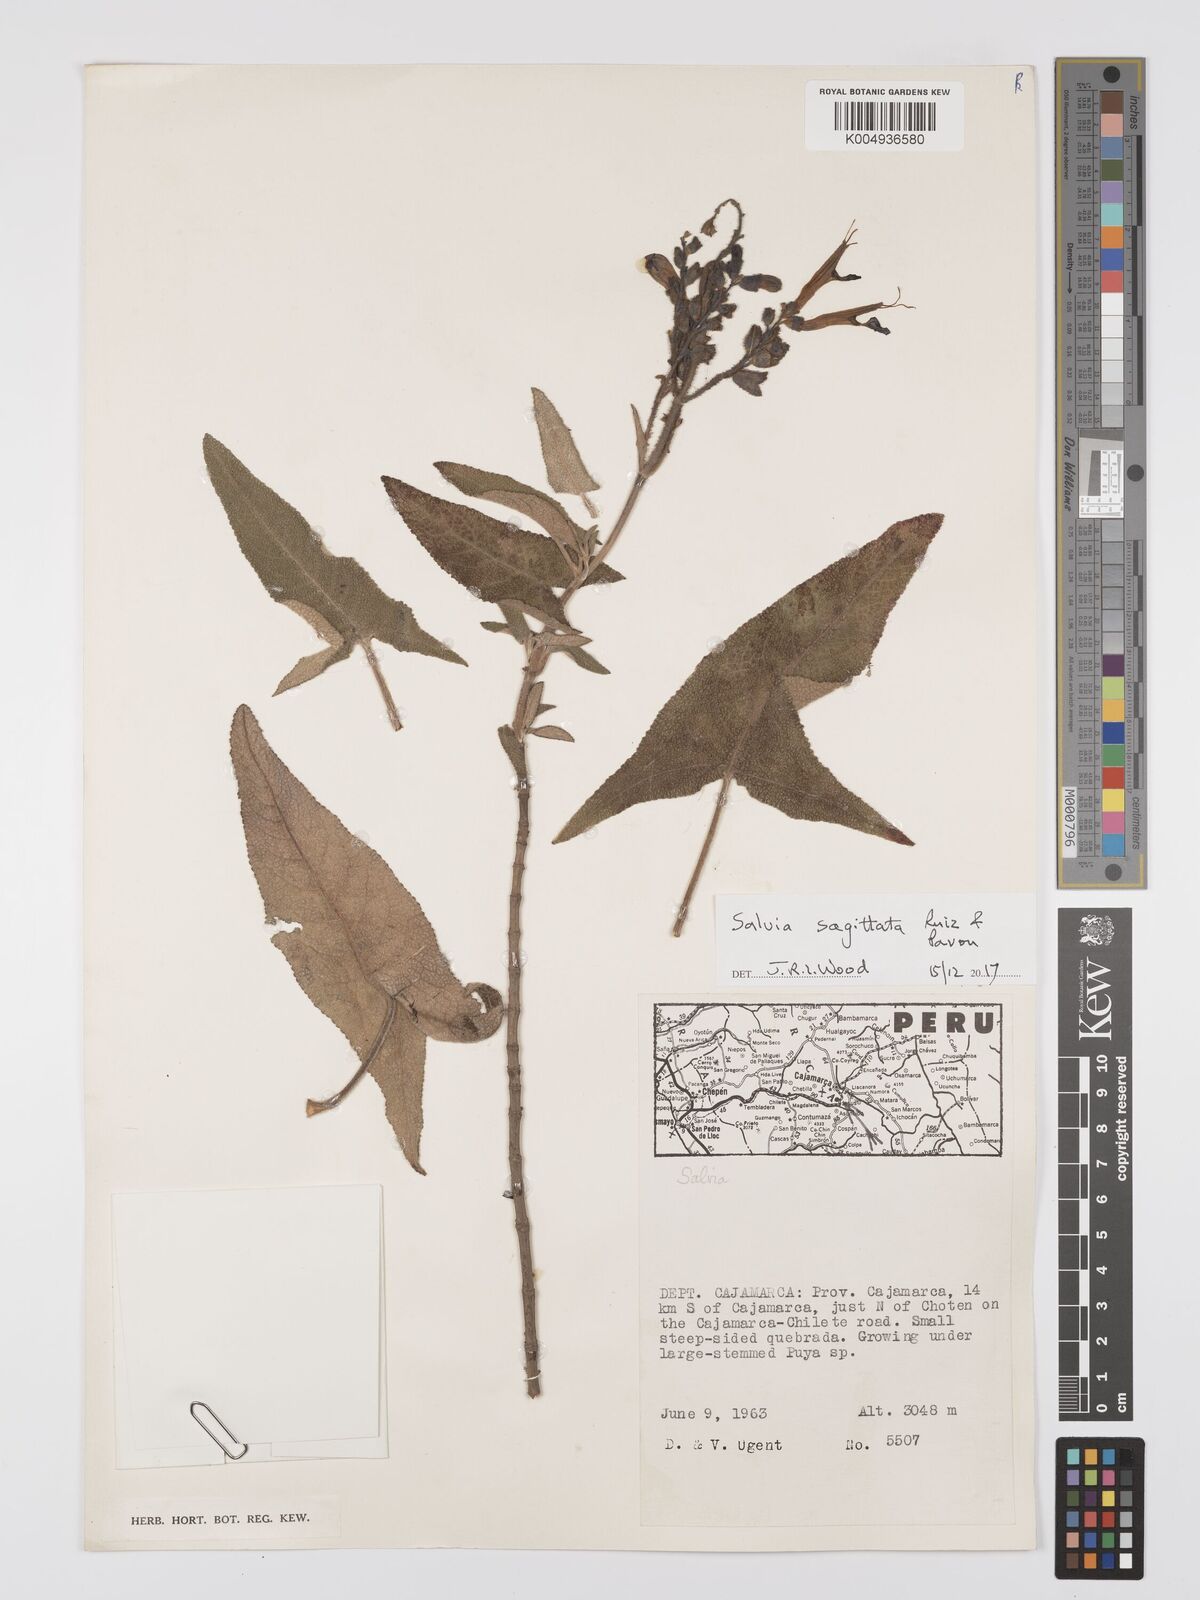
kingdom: Plantae
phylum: Tracheophyta
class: Magnoliopsida
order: Lamiales
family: Lamiaceae
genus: Salvia
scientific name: Salvia sagittata
